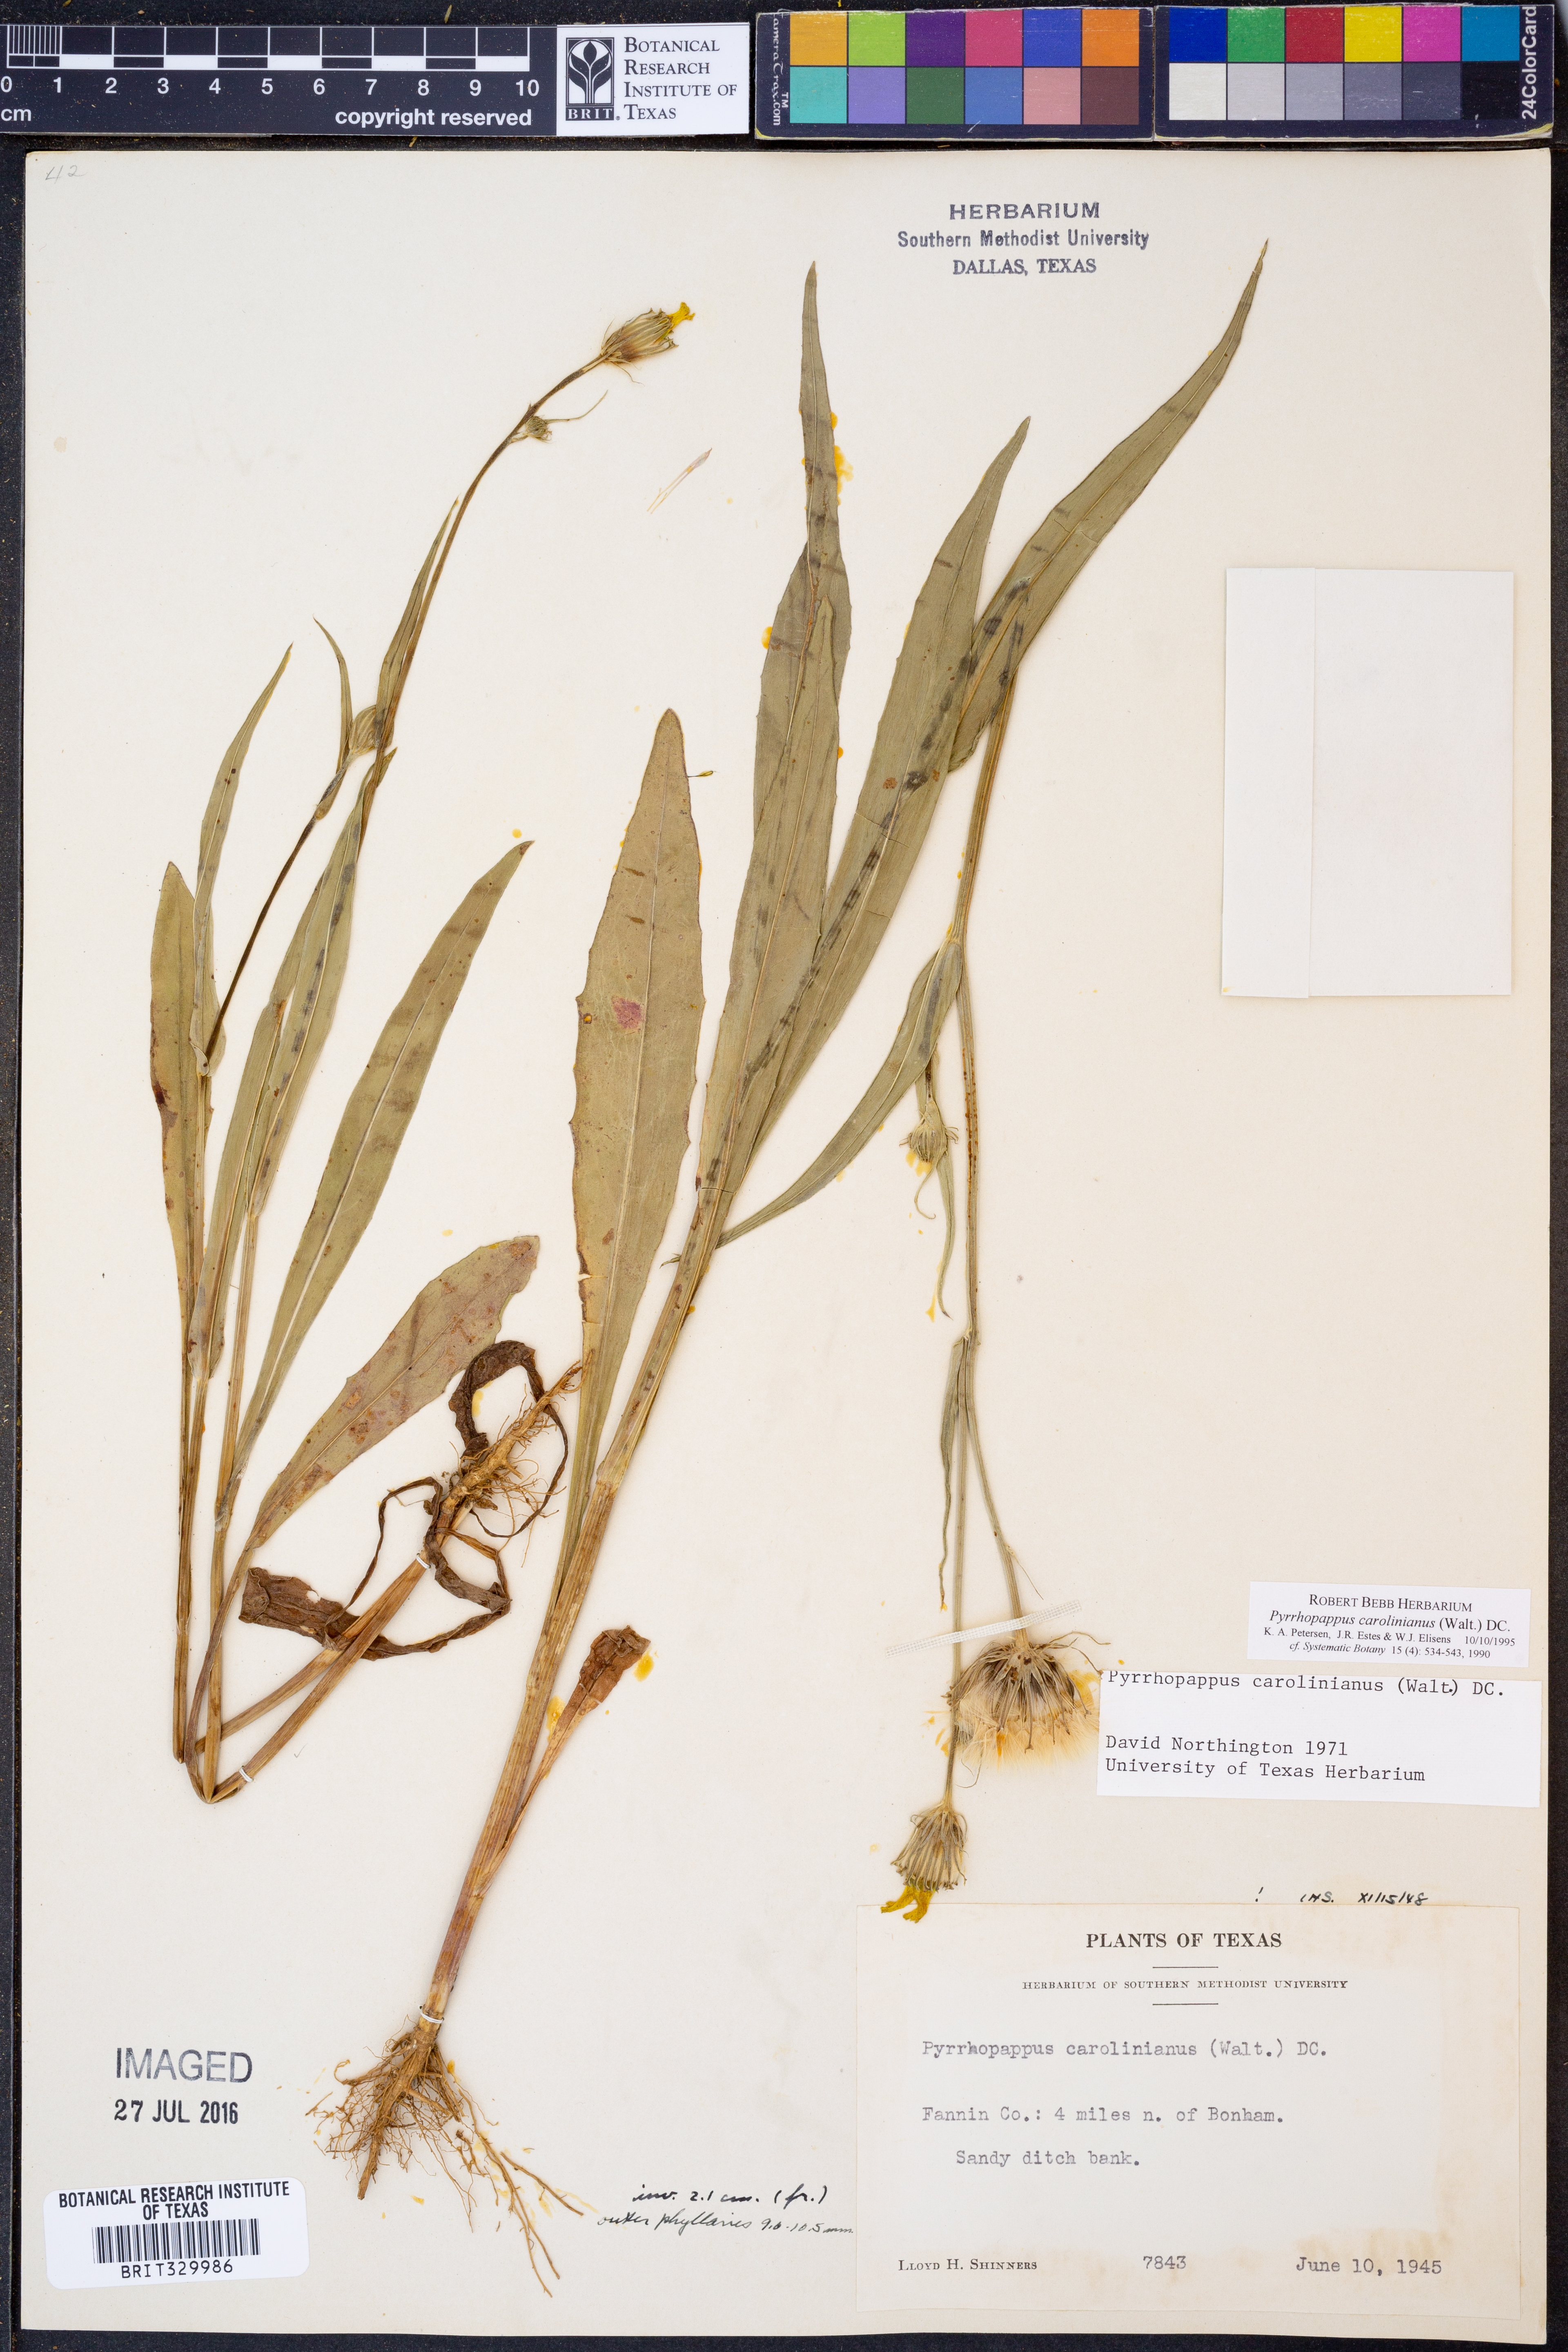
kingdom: Plantae
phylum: Tracheophyta
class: Magnoliopsida
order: Asterales
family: Asteraceae
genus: Pyrrhopappus
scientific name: Pyrrhopappus carolinianus
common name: Carolina desert-chicory
